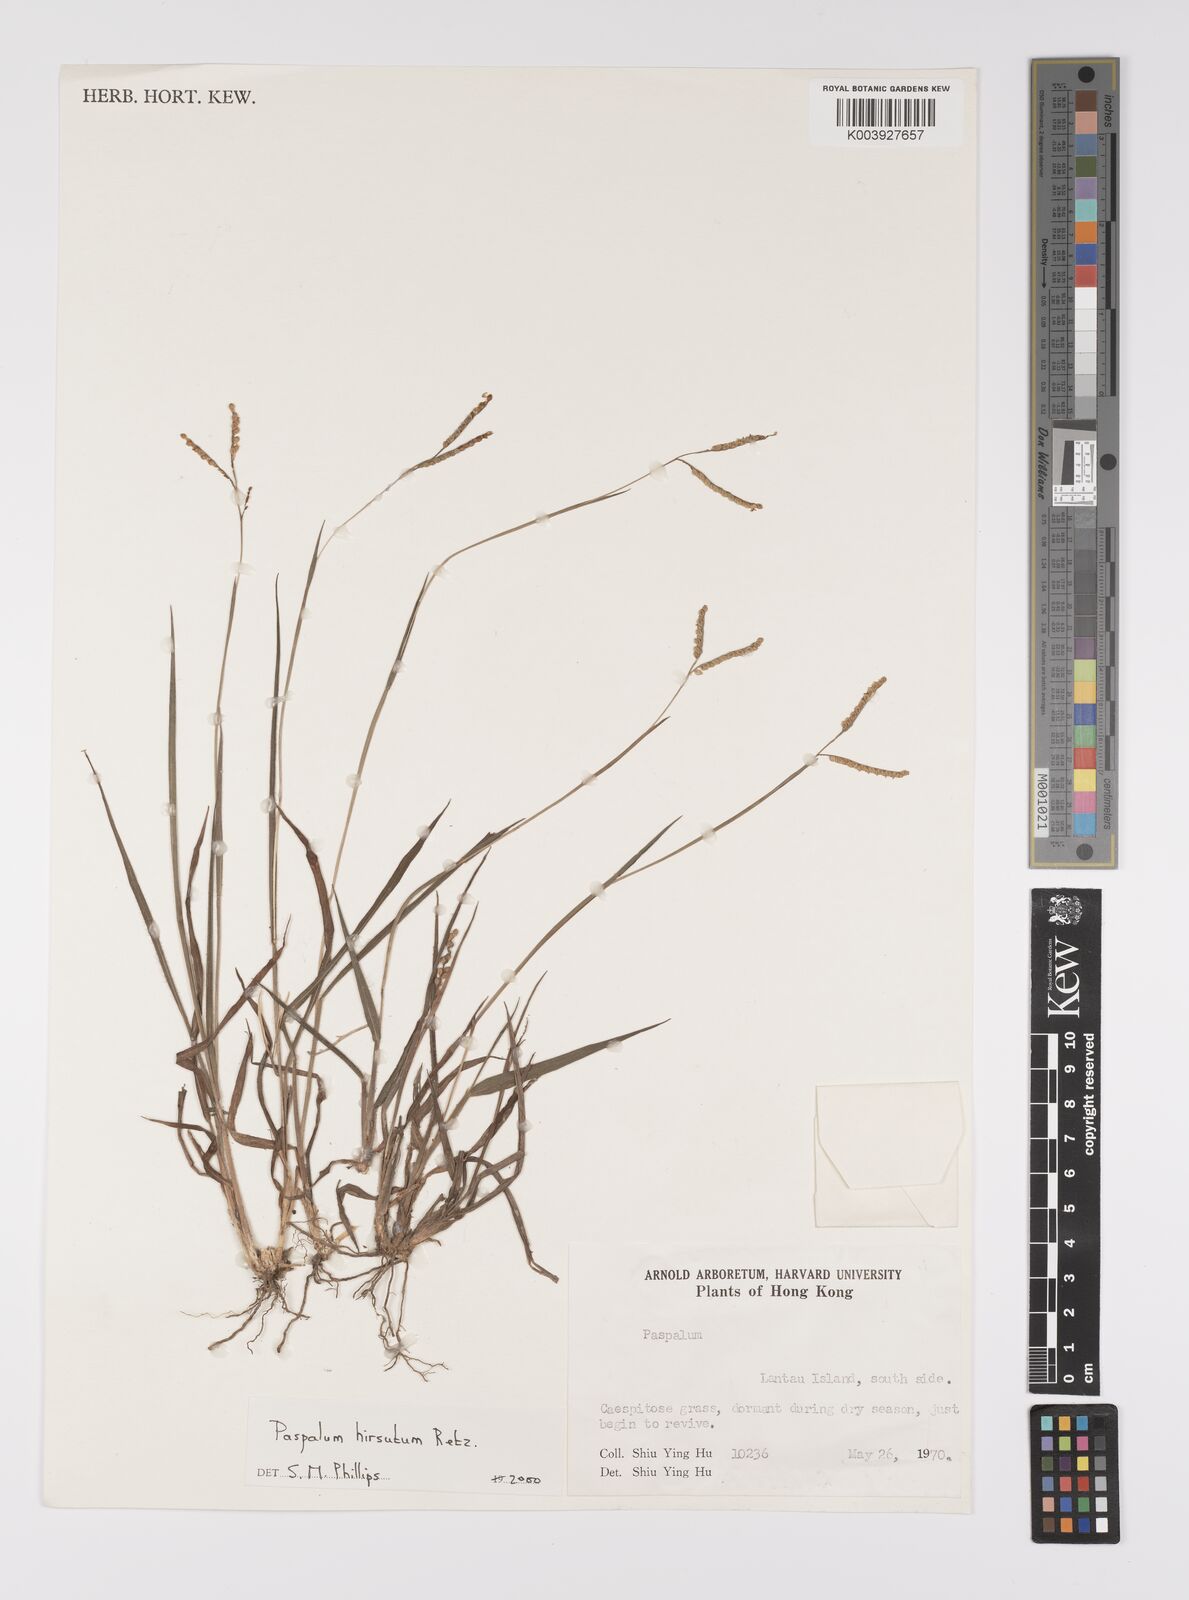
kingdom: Plantae
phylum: Tracheophyta
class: Liliopsida
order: Poales
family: Poaceae
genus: Paspalum
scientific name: Paspalum hirsutum
